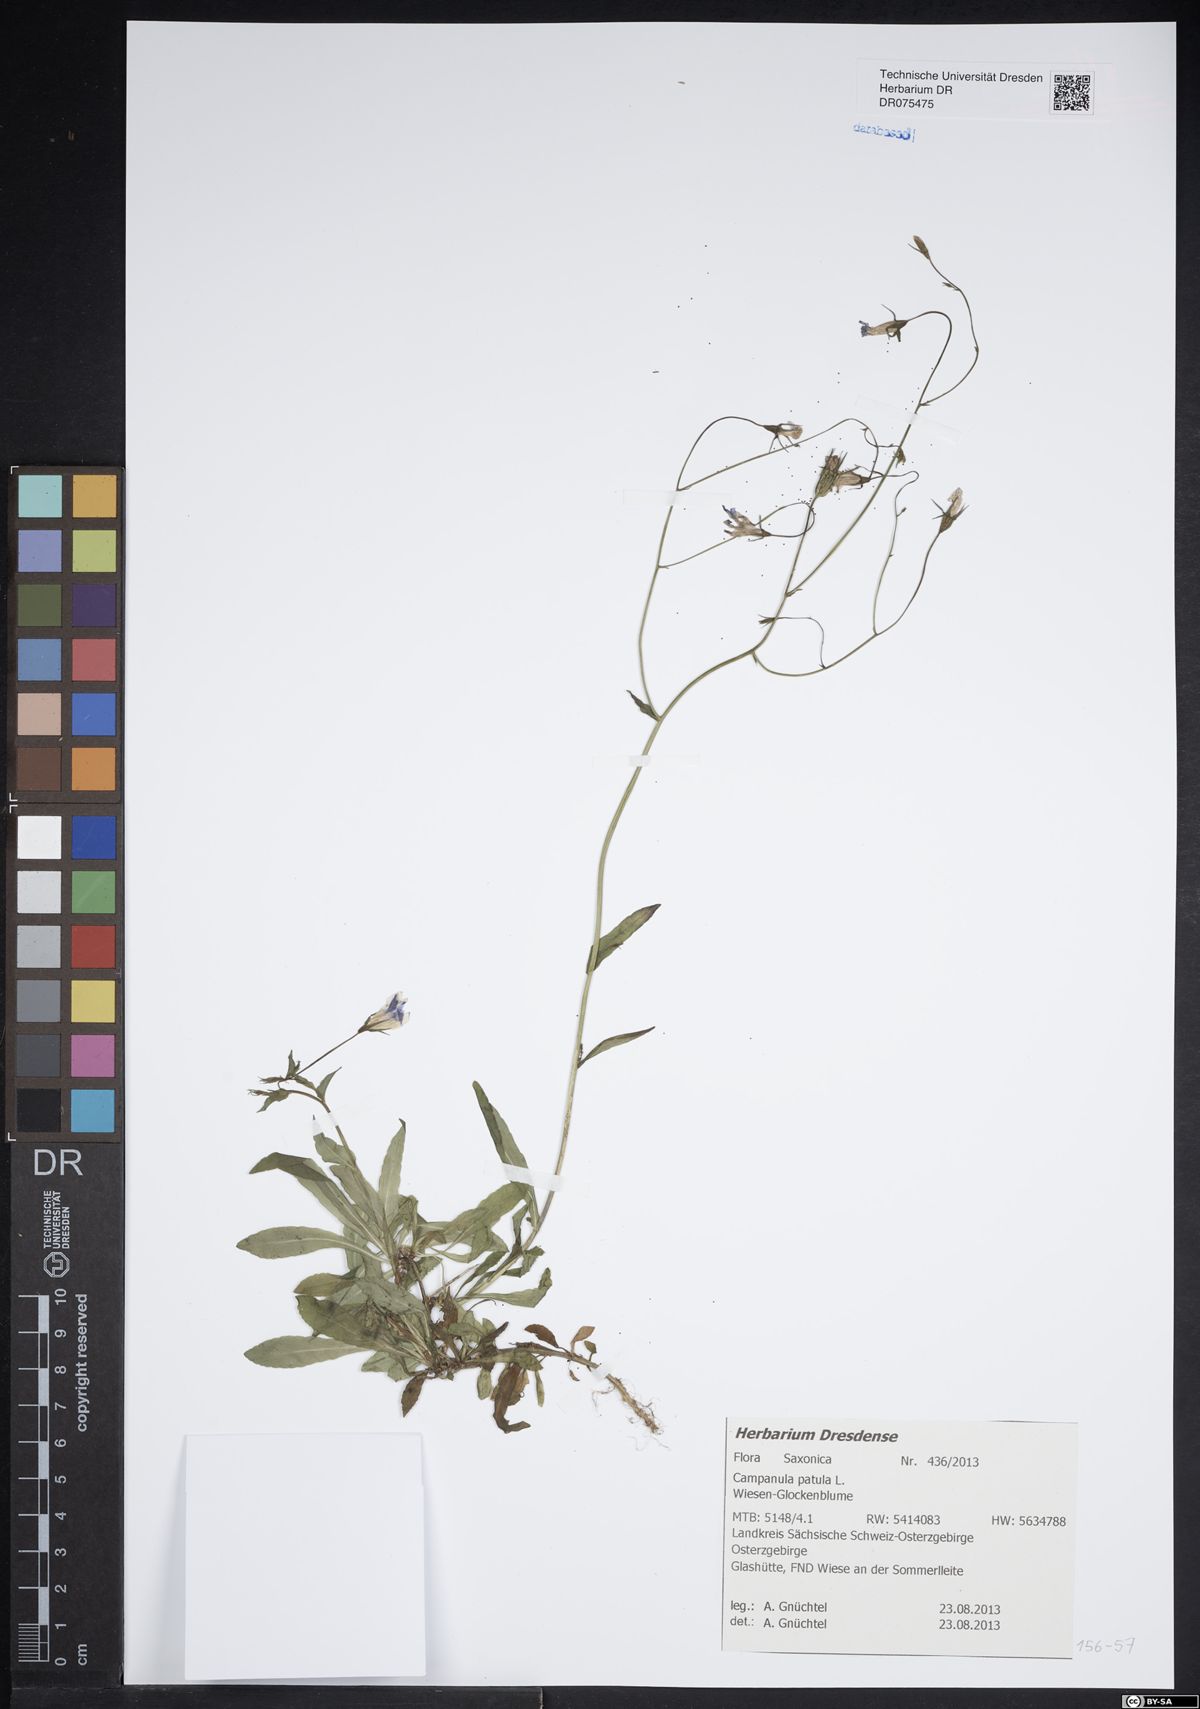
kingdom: Plantae
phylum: Tracheophyta
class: Magnoliopsida
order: Asterales
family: Campanulaceae
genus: Campanula
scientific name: Campanula patula
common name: Spreading bellflower
